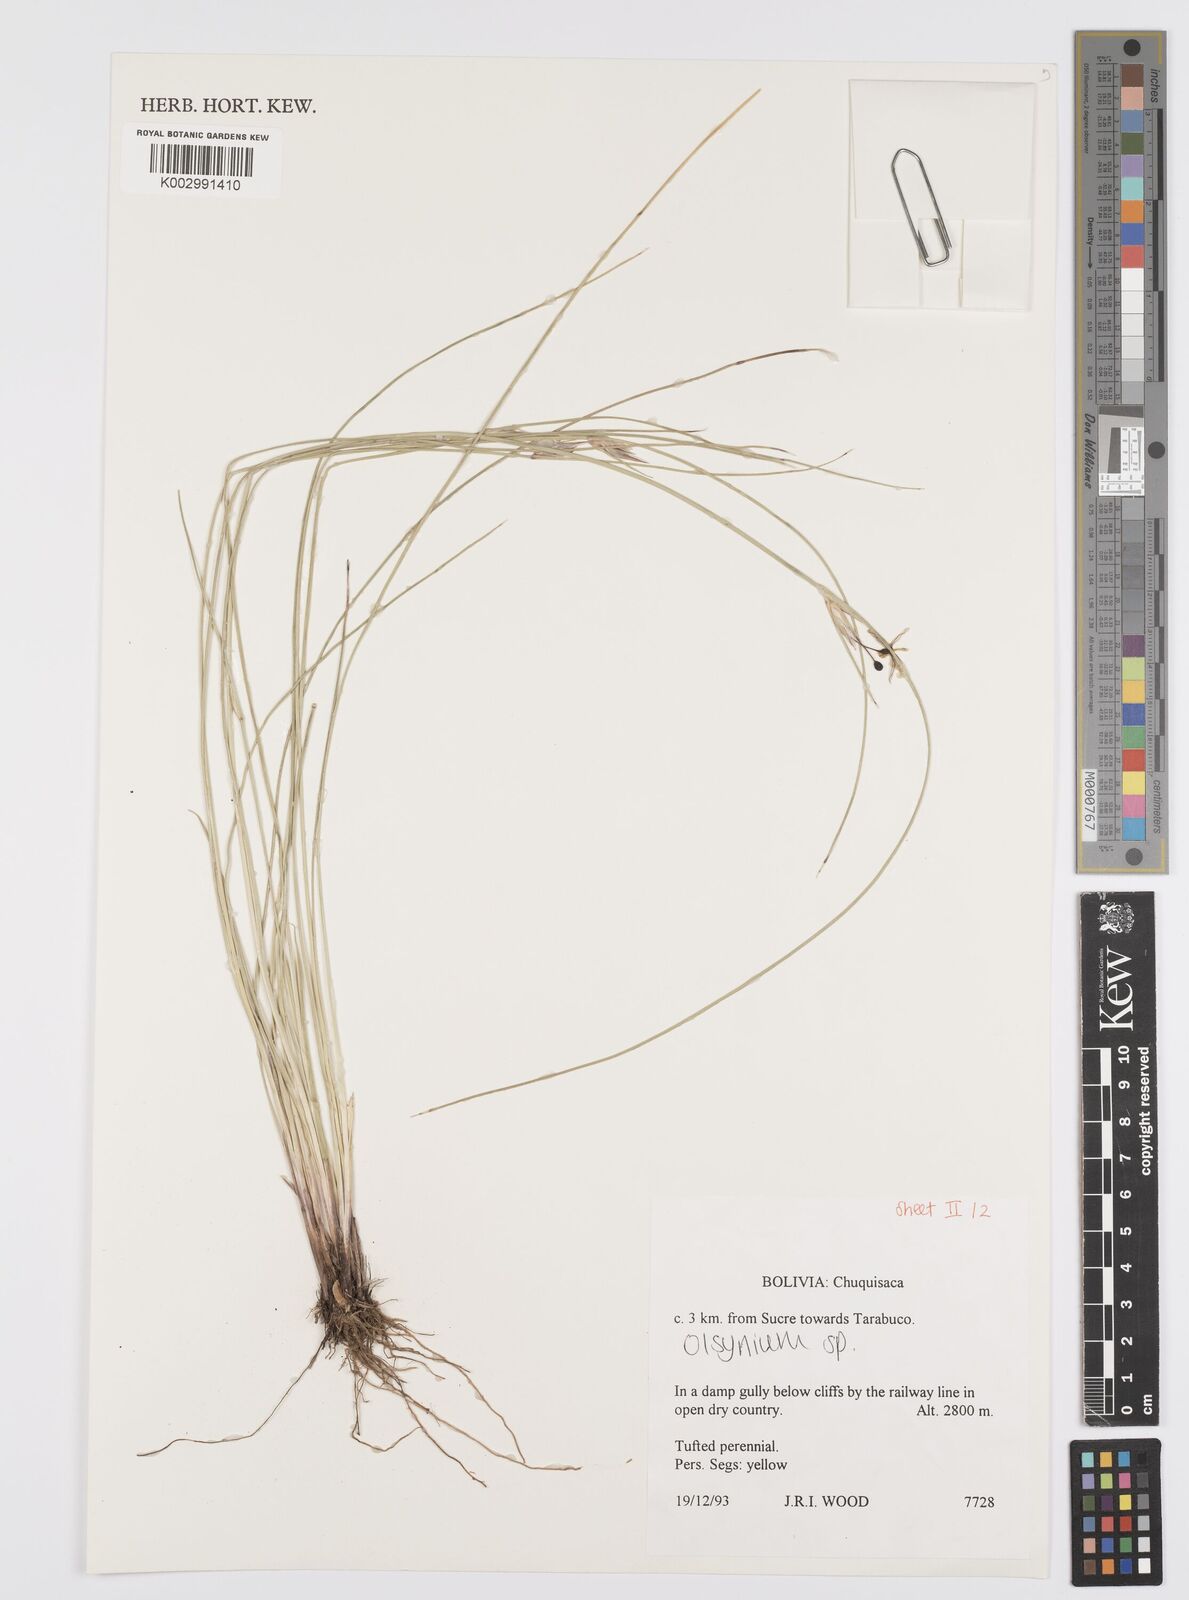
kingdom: Plantae
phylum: Tracheophyta
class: Liliopsida
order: Asparagales
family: Iridaceae
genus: Olsynium
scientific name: Olsynium
